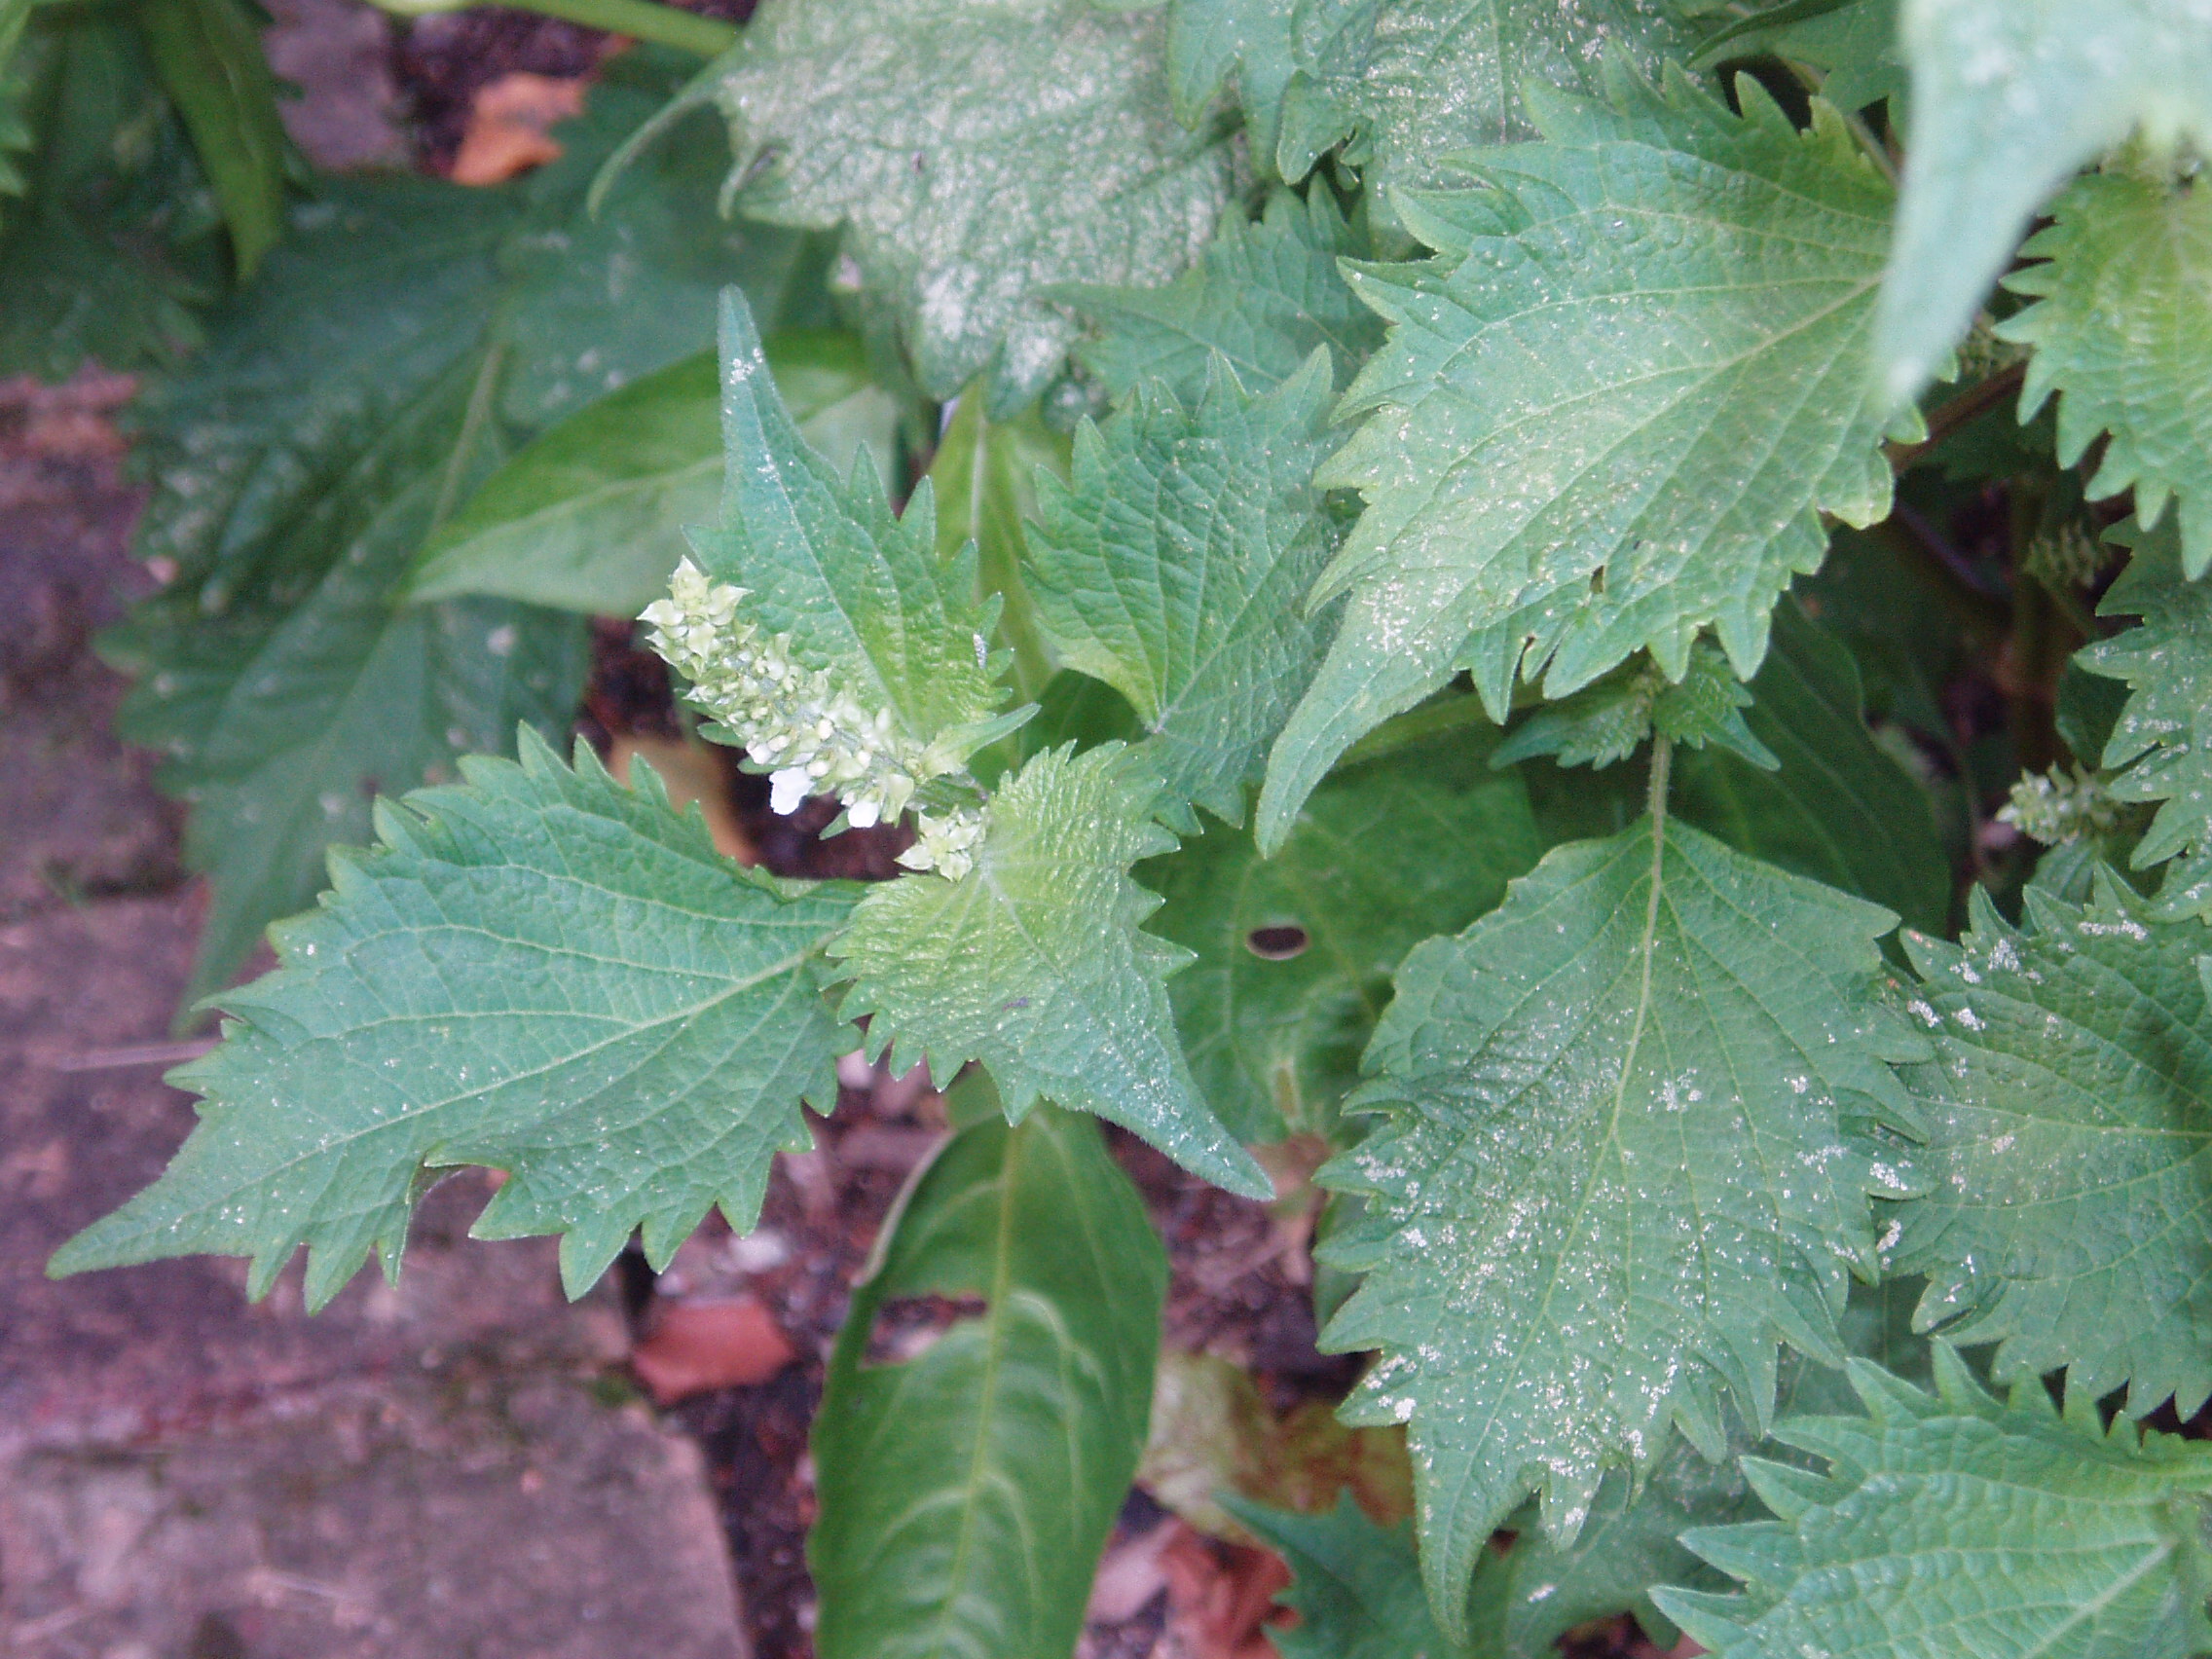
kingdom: Plantae
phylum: Tracheophyta
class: Magnoliopsida
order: Lamiales
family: Lamiaceae
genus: Perilla
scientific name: Perilla frutescens
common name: Perilla
